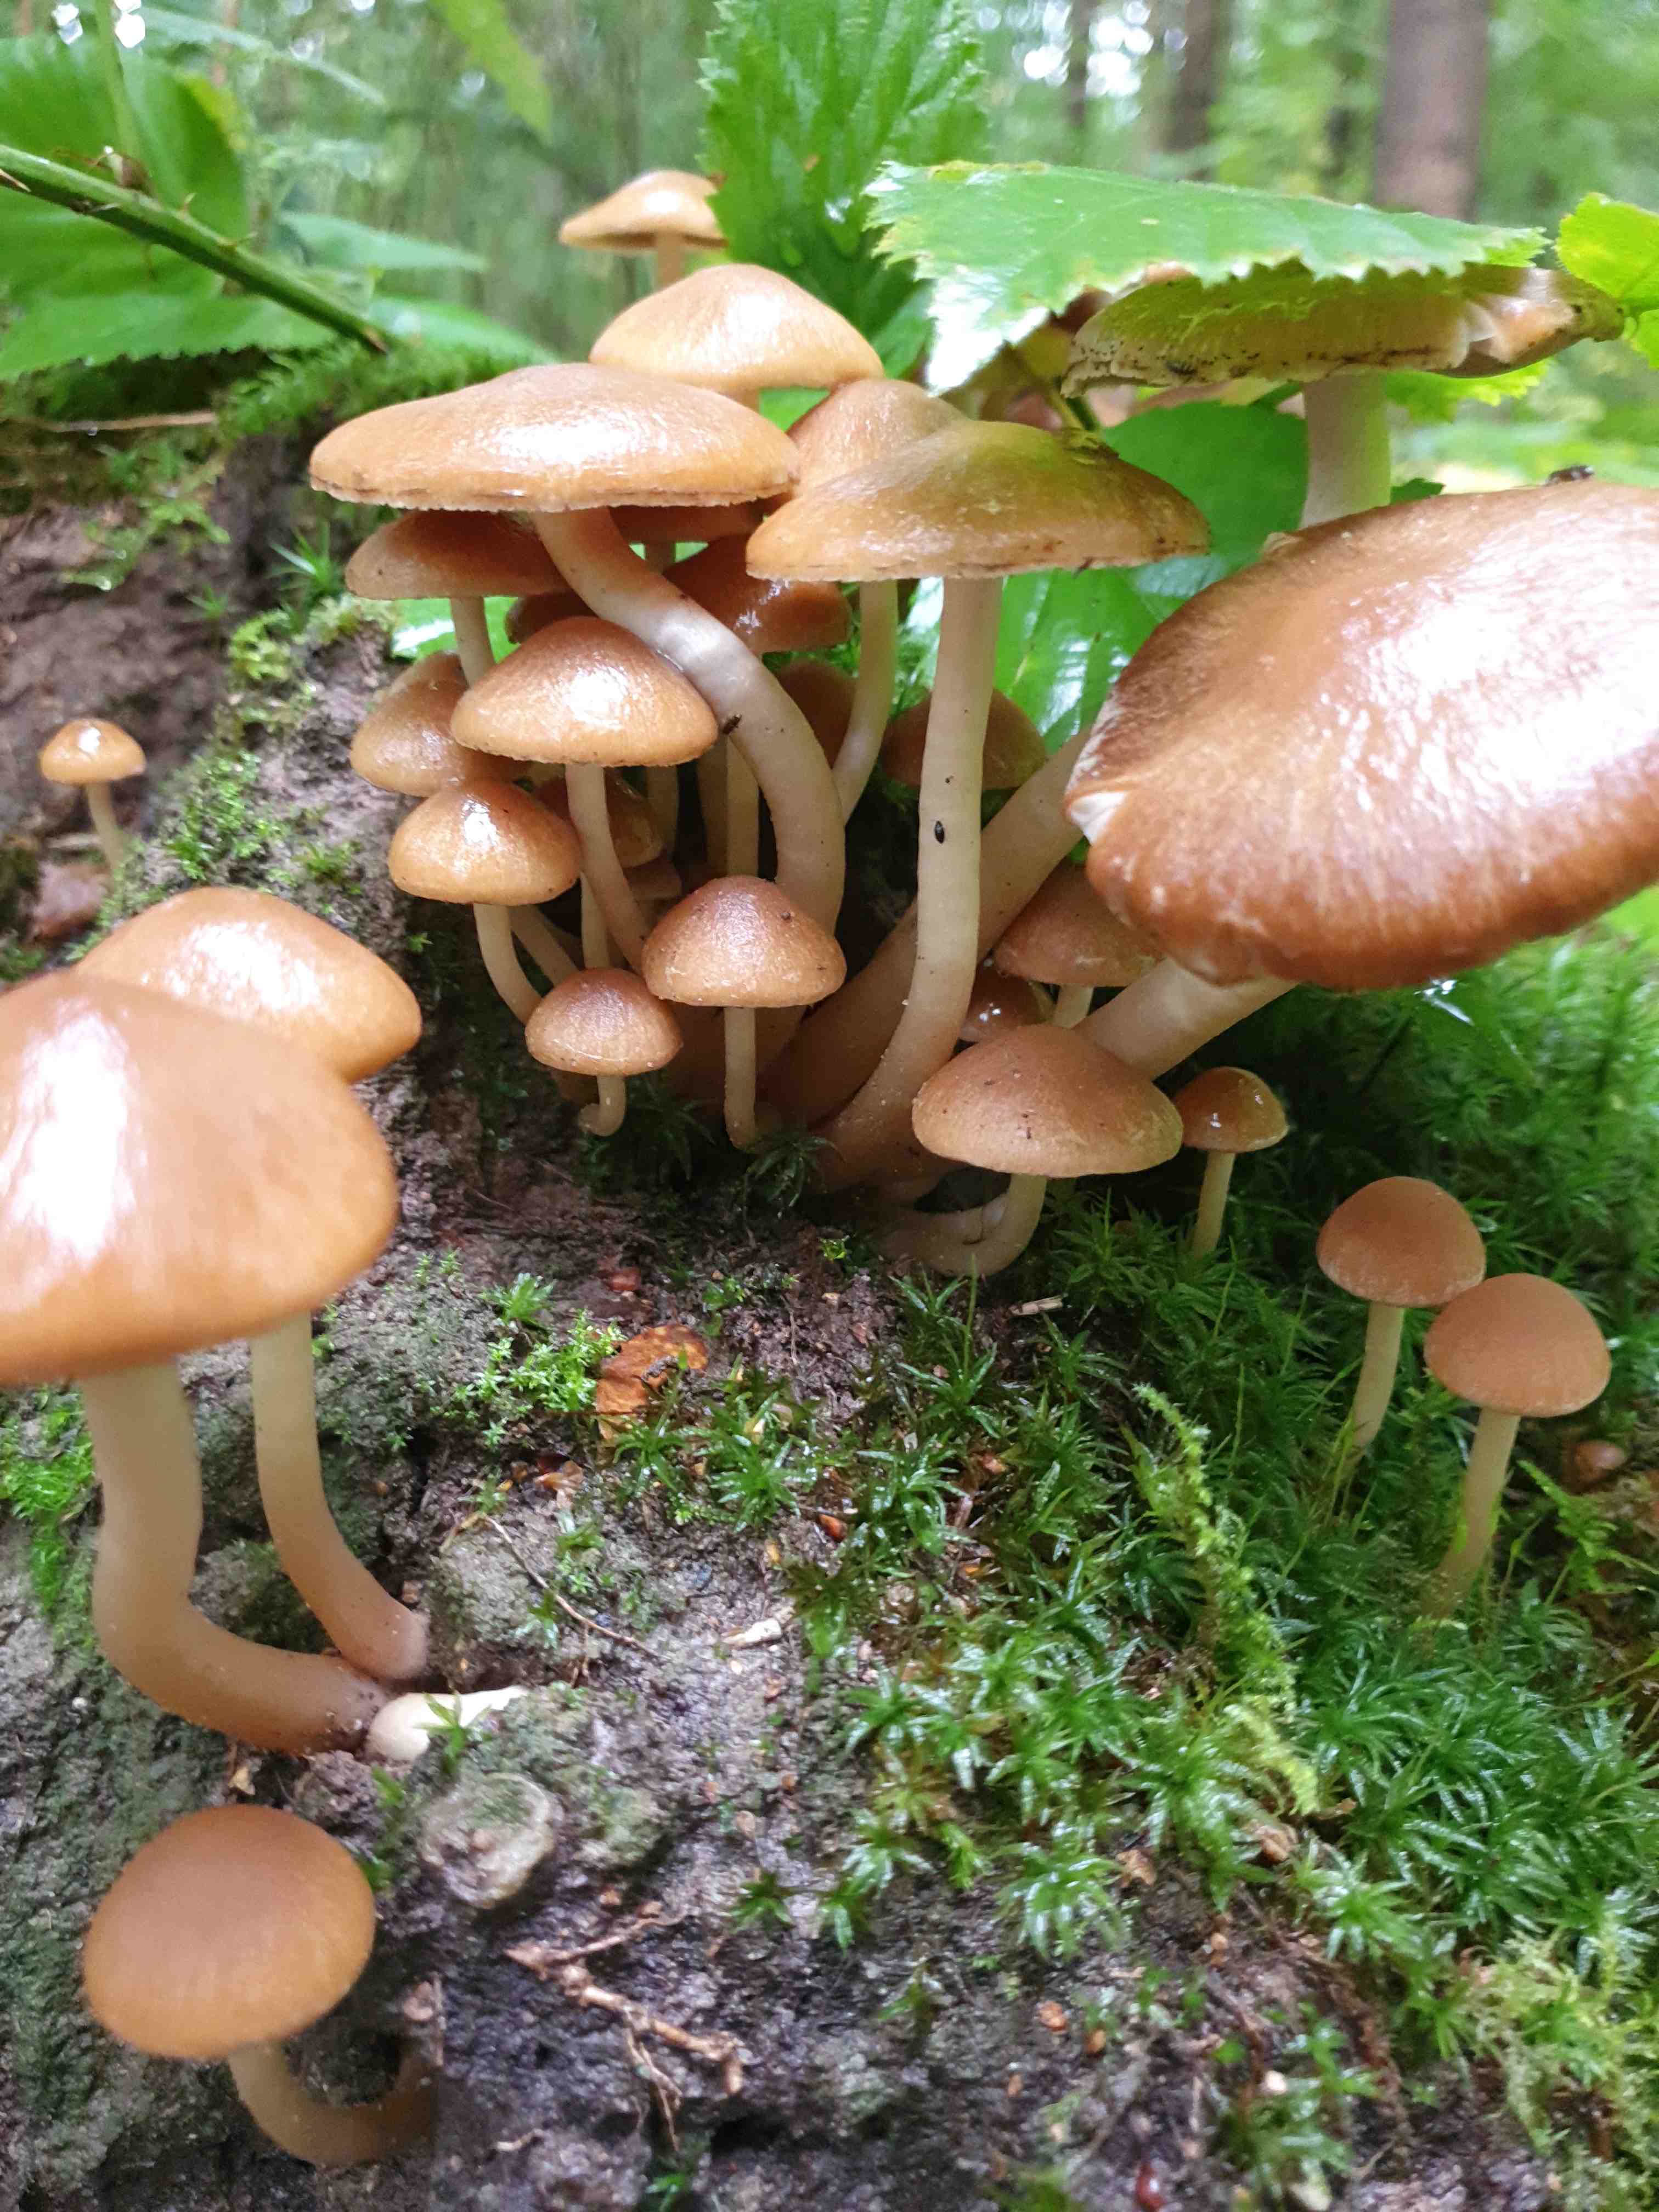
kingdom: Fungi
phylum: Basidiomycota
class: Agaricomycetes
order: Agaricales
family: Psathyrellaceae
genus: Psathyrella
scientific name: Psathyrella piluliformis
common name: lysstokket mørkhat
